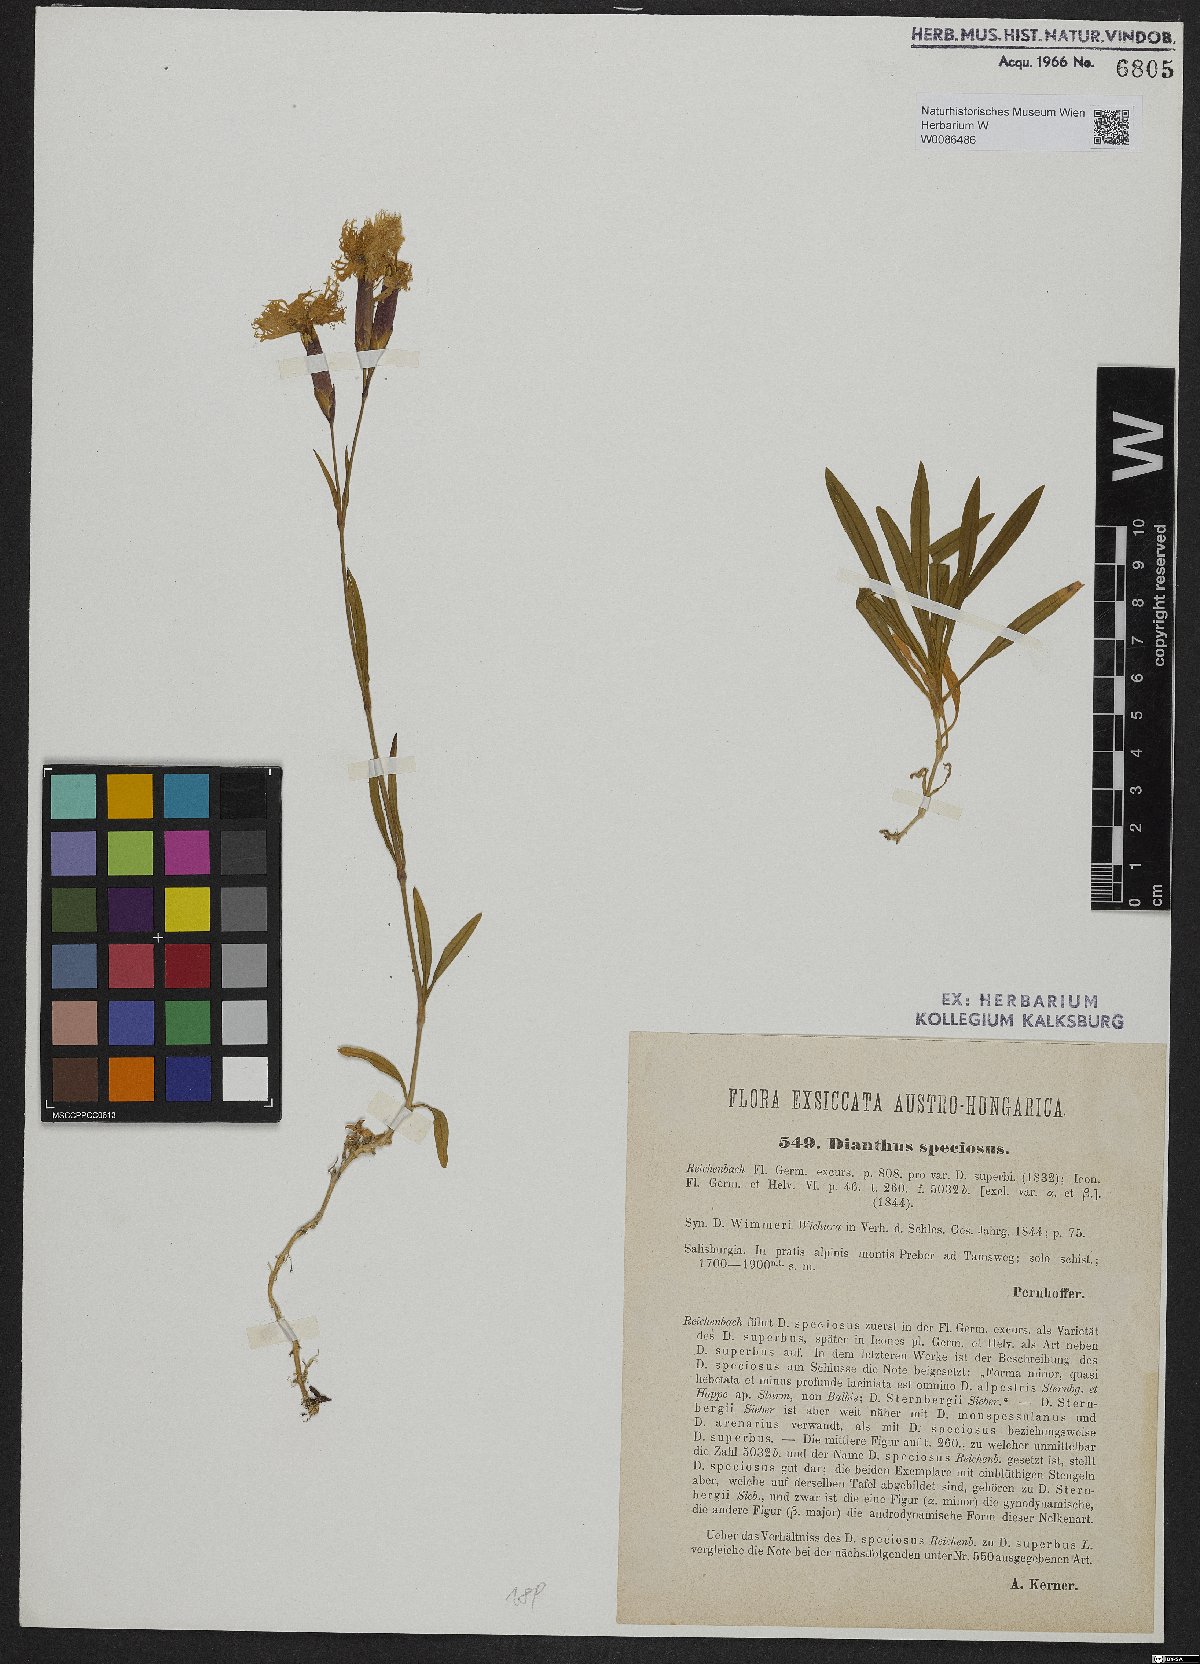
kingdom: Plantae
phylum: Tracheophyta
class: Magnoliopsida
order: Caryophyllales
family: Caryophyllaceae
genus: Dianthus
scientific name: Dianthus superbus
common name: Fringed pink
